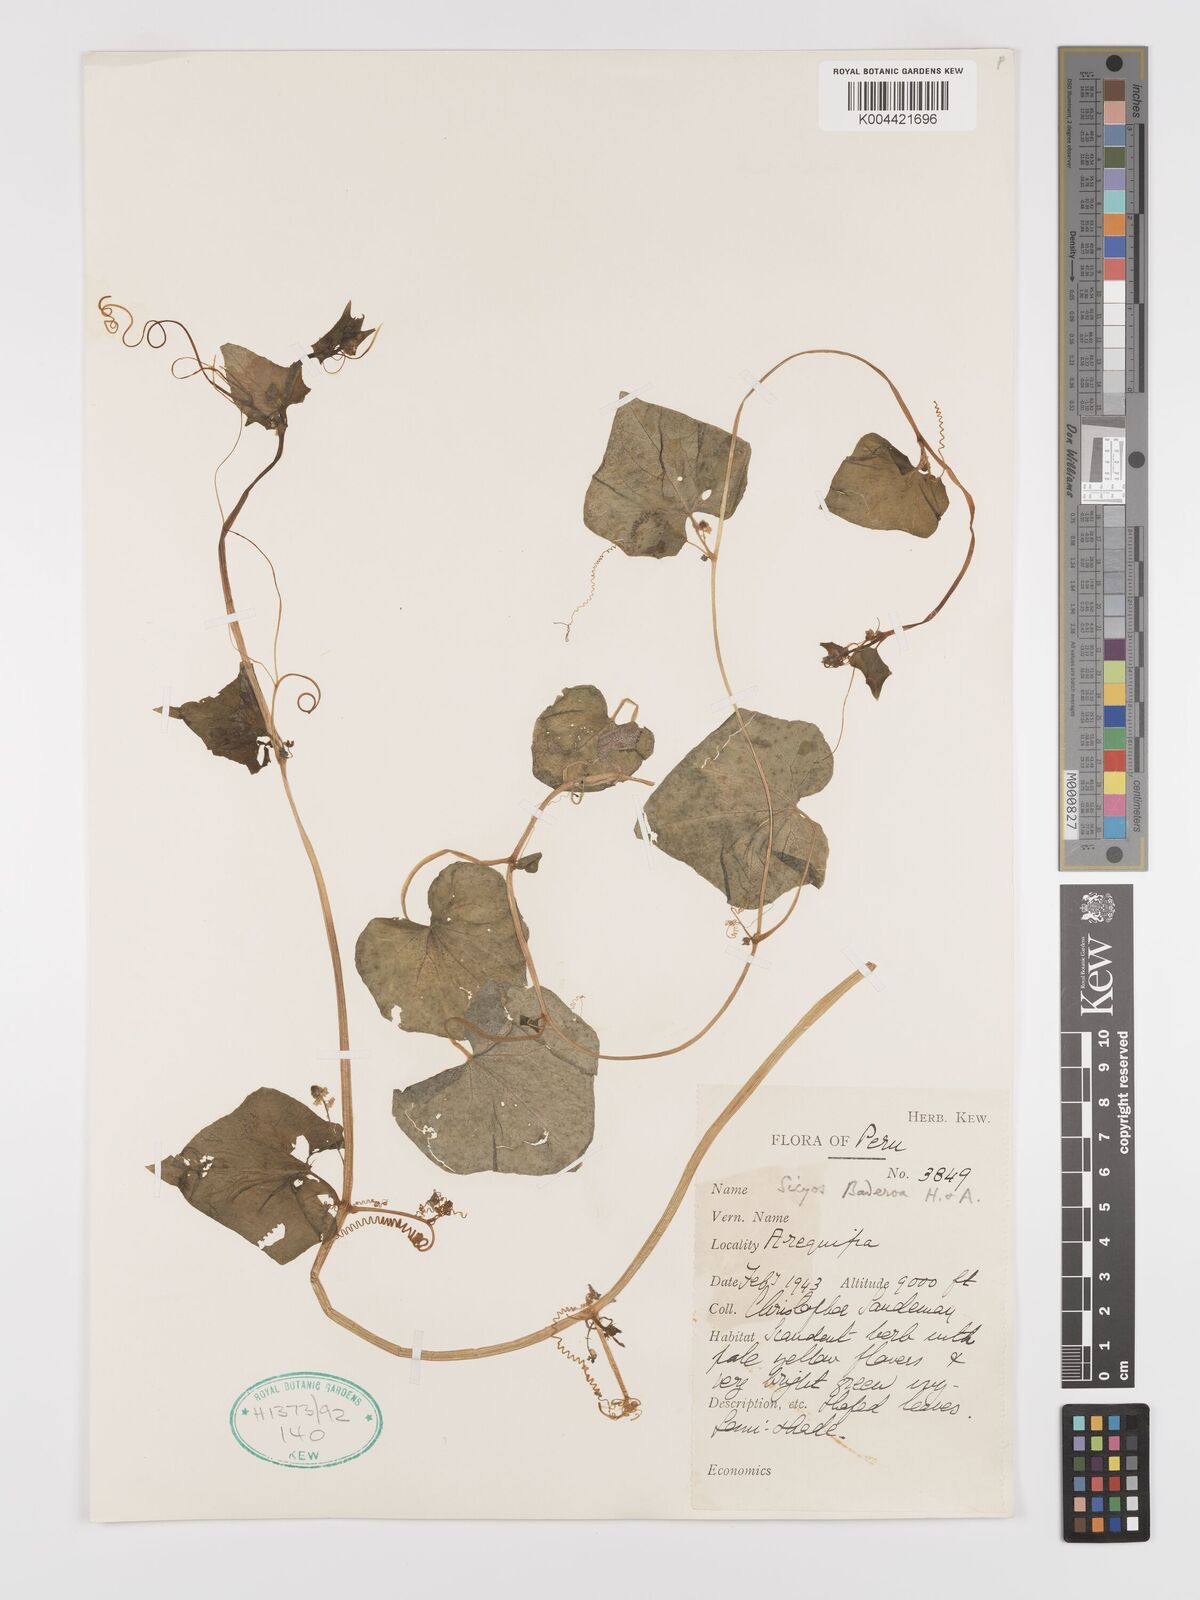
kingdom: Plantae
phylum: Tracheophyta
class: Magnoliopsida
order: Cucurbitales
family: Cucurbitaceae
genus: Sicyos
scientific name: Sicyos baderoa
